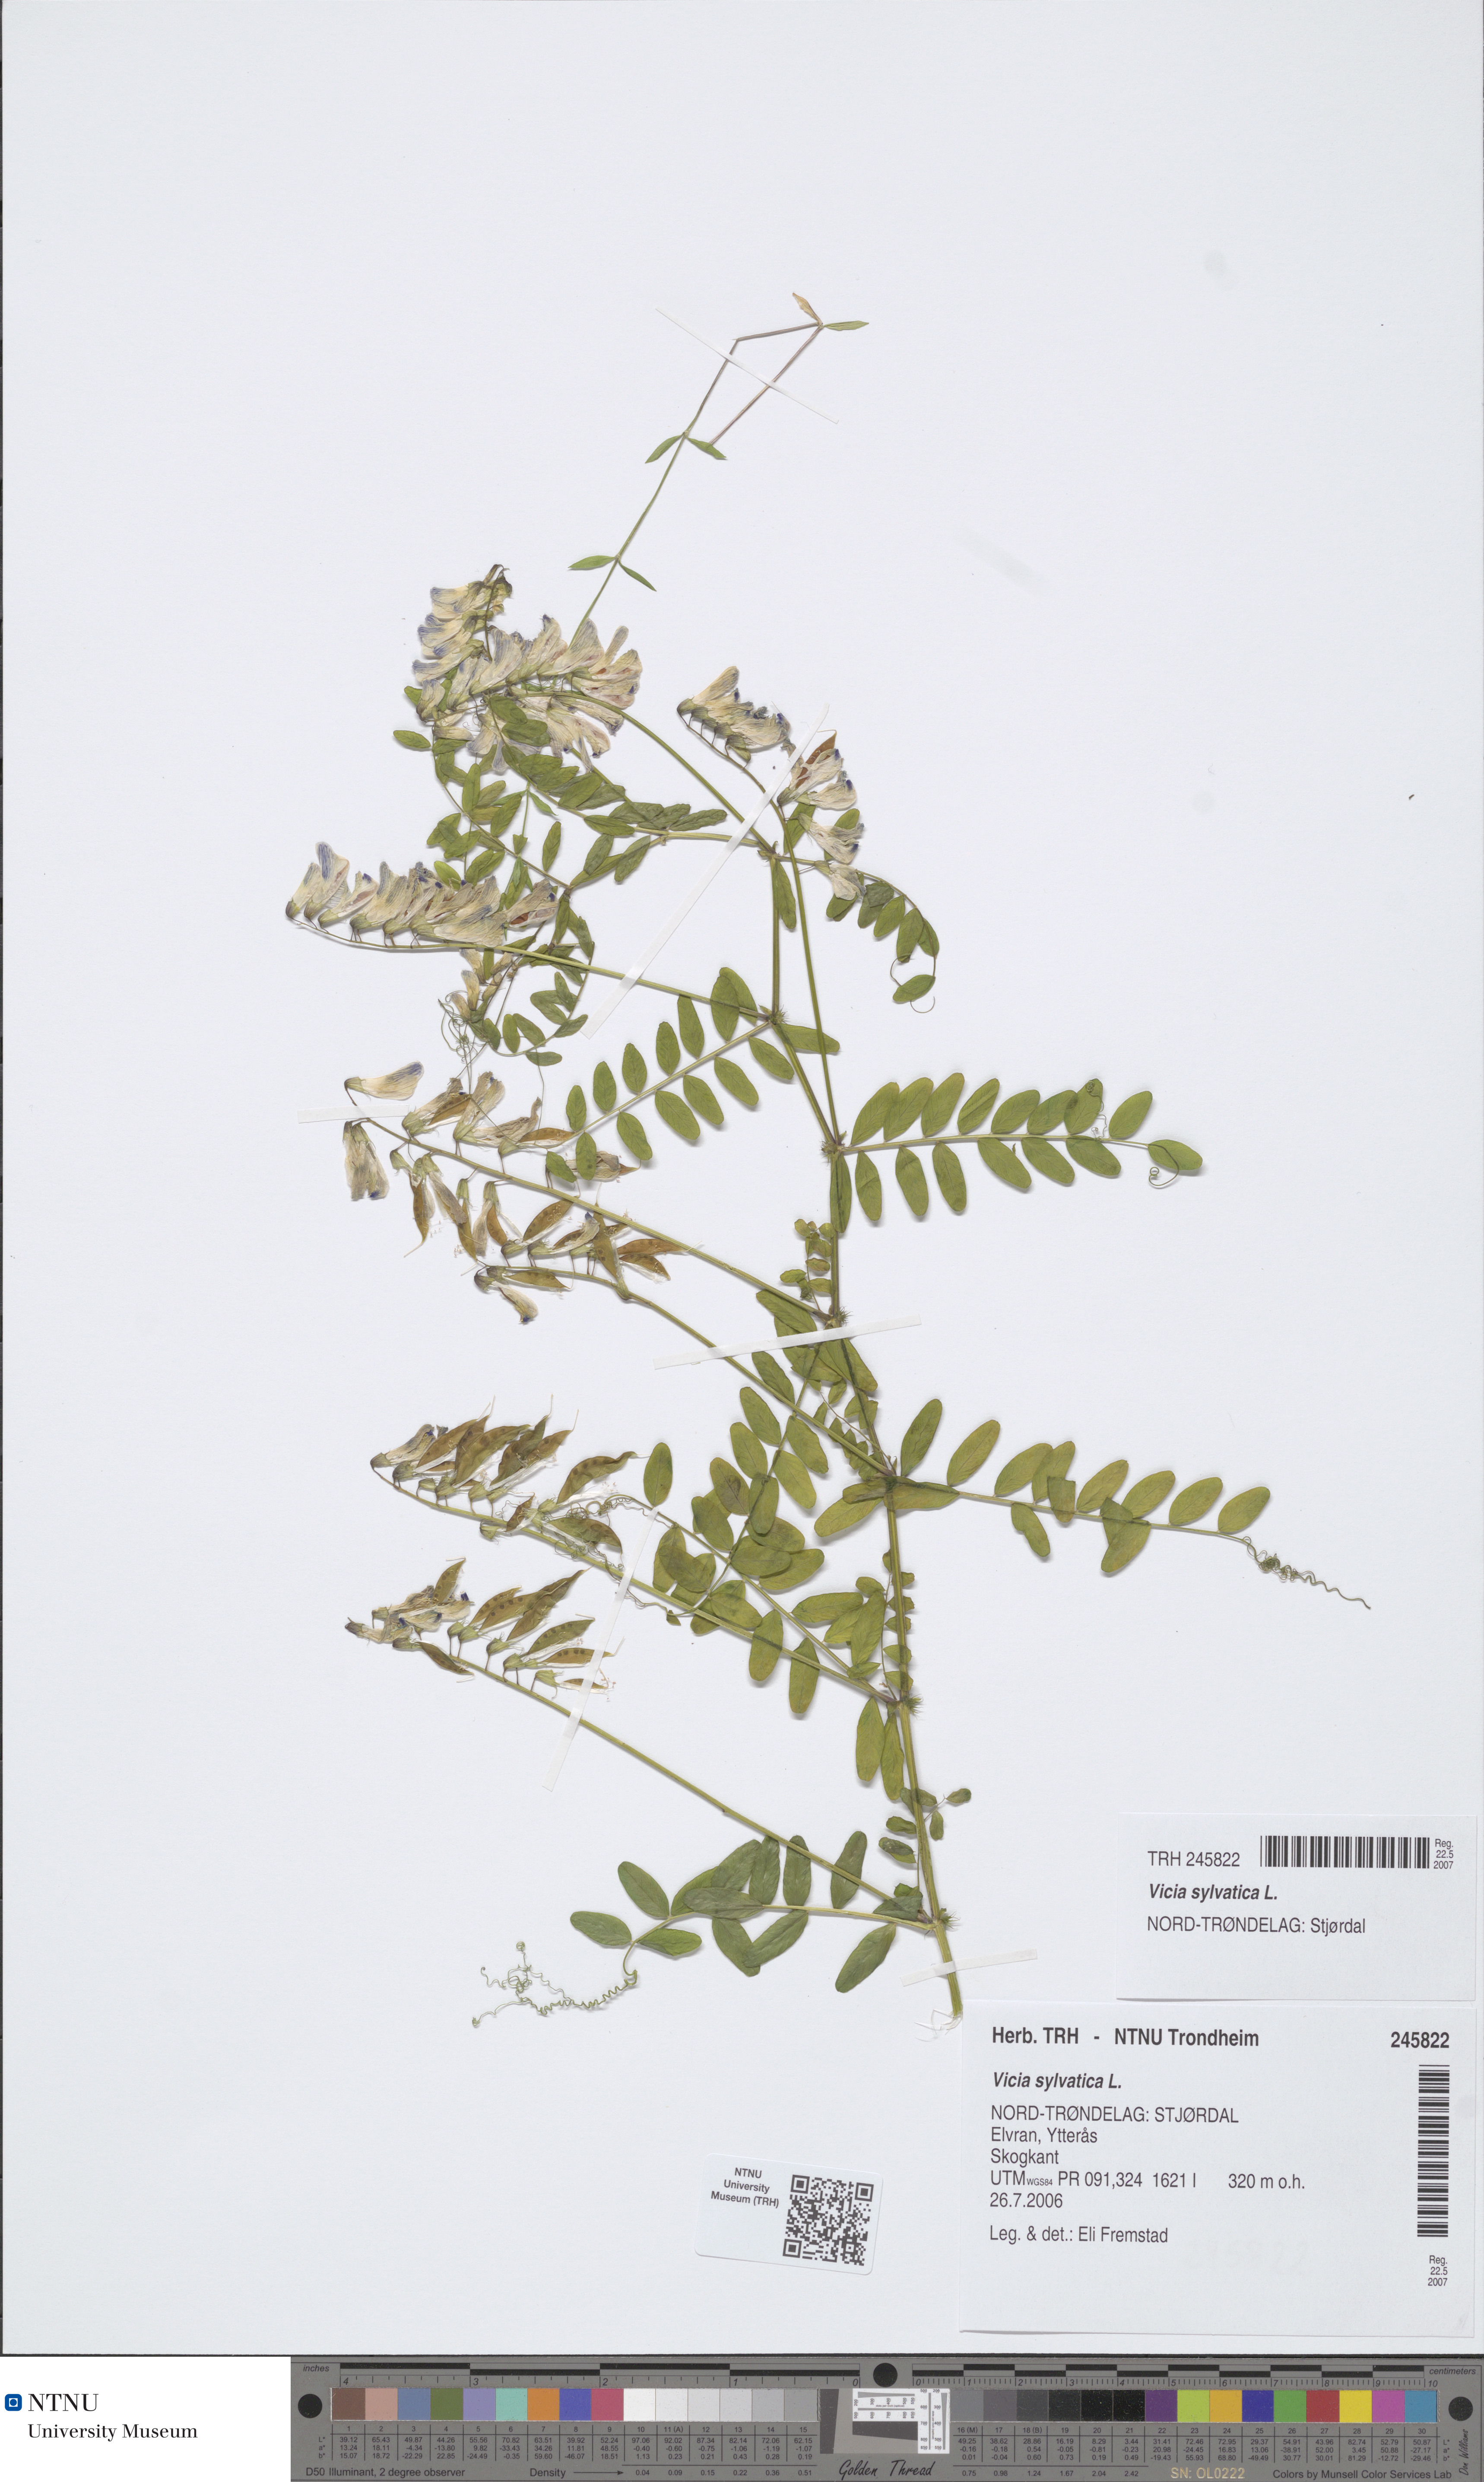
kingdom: Plantae
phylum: Tracheophyta
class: Magnoliopsida
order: Fabales
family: Fabaceae
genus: Vicia
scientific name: Vicia sylvatica
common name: Wood vetch
